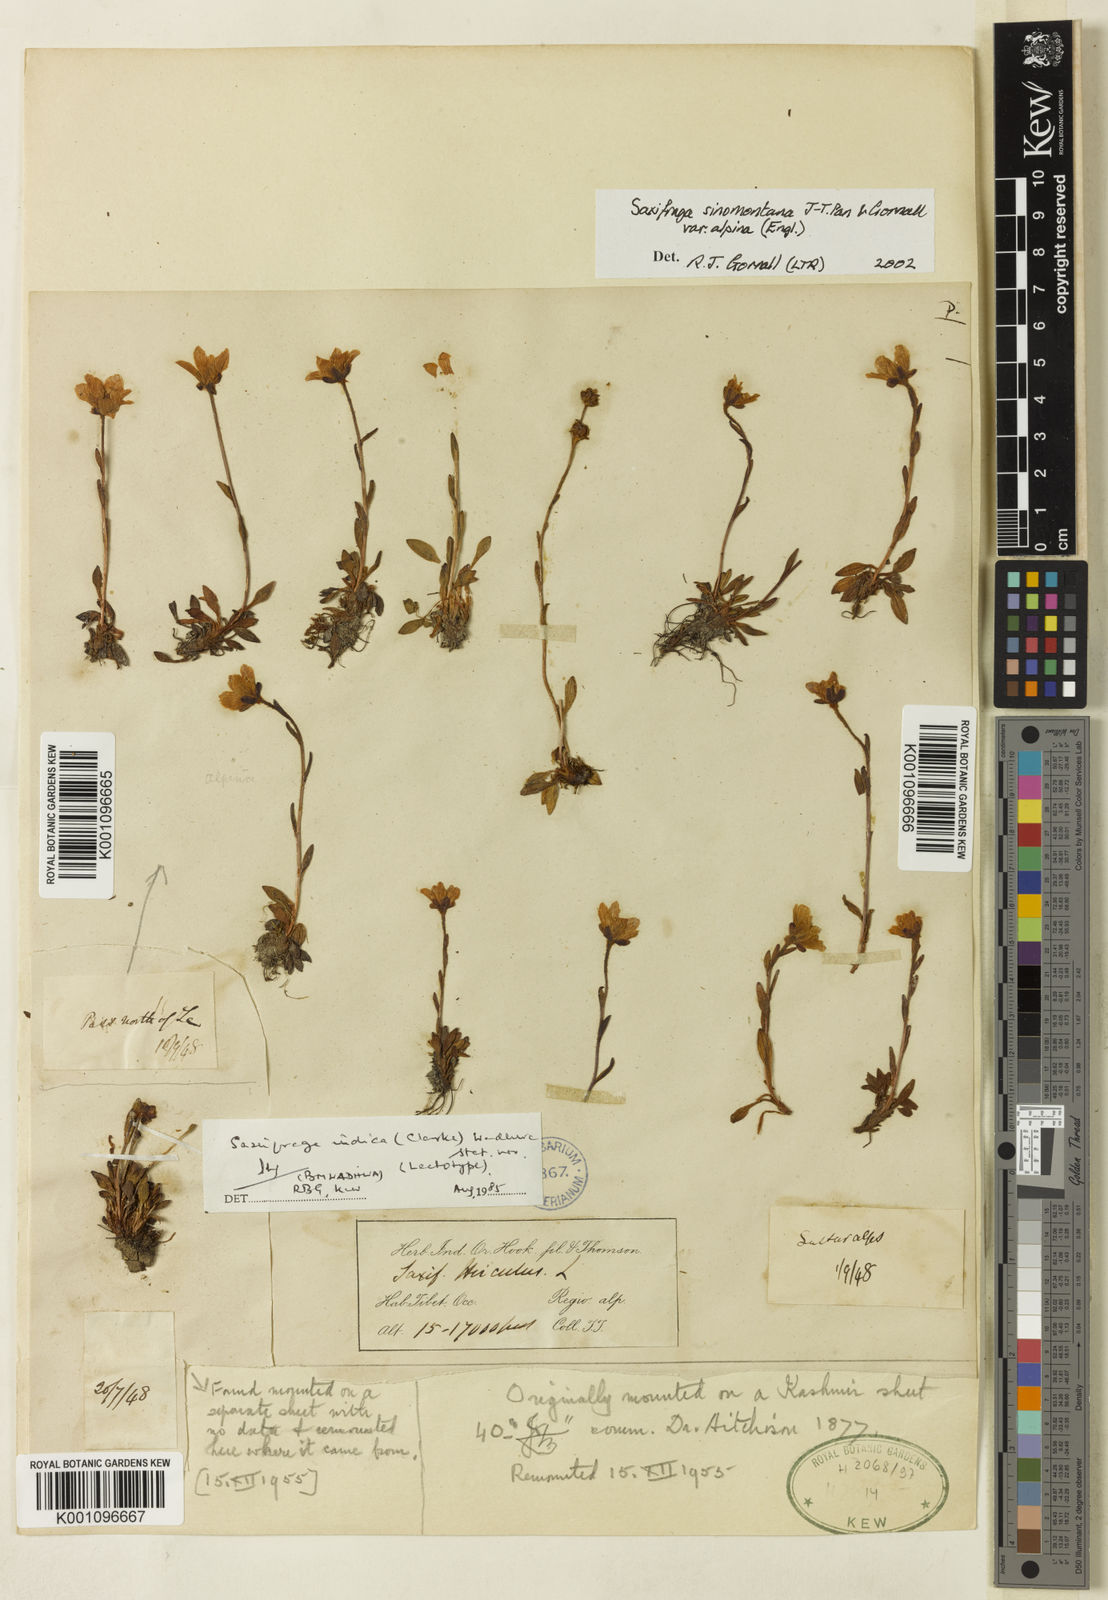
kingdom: Plantae
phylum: Tracheophyta
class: Magnoliopsida
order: Saxifragales
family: Saxifragaceae
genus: Saxifraga
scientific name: Saxifraga
